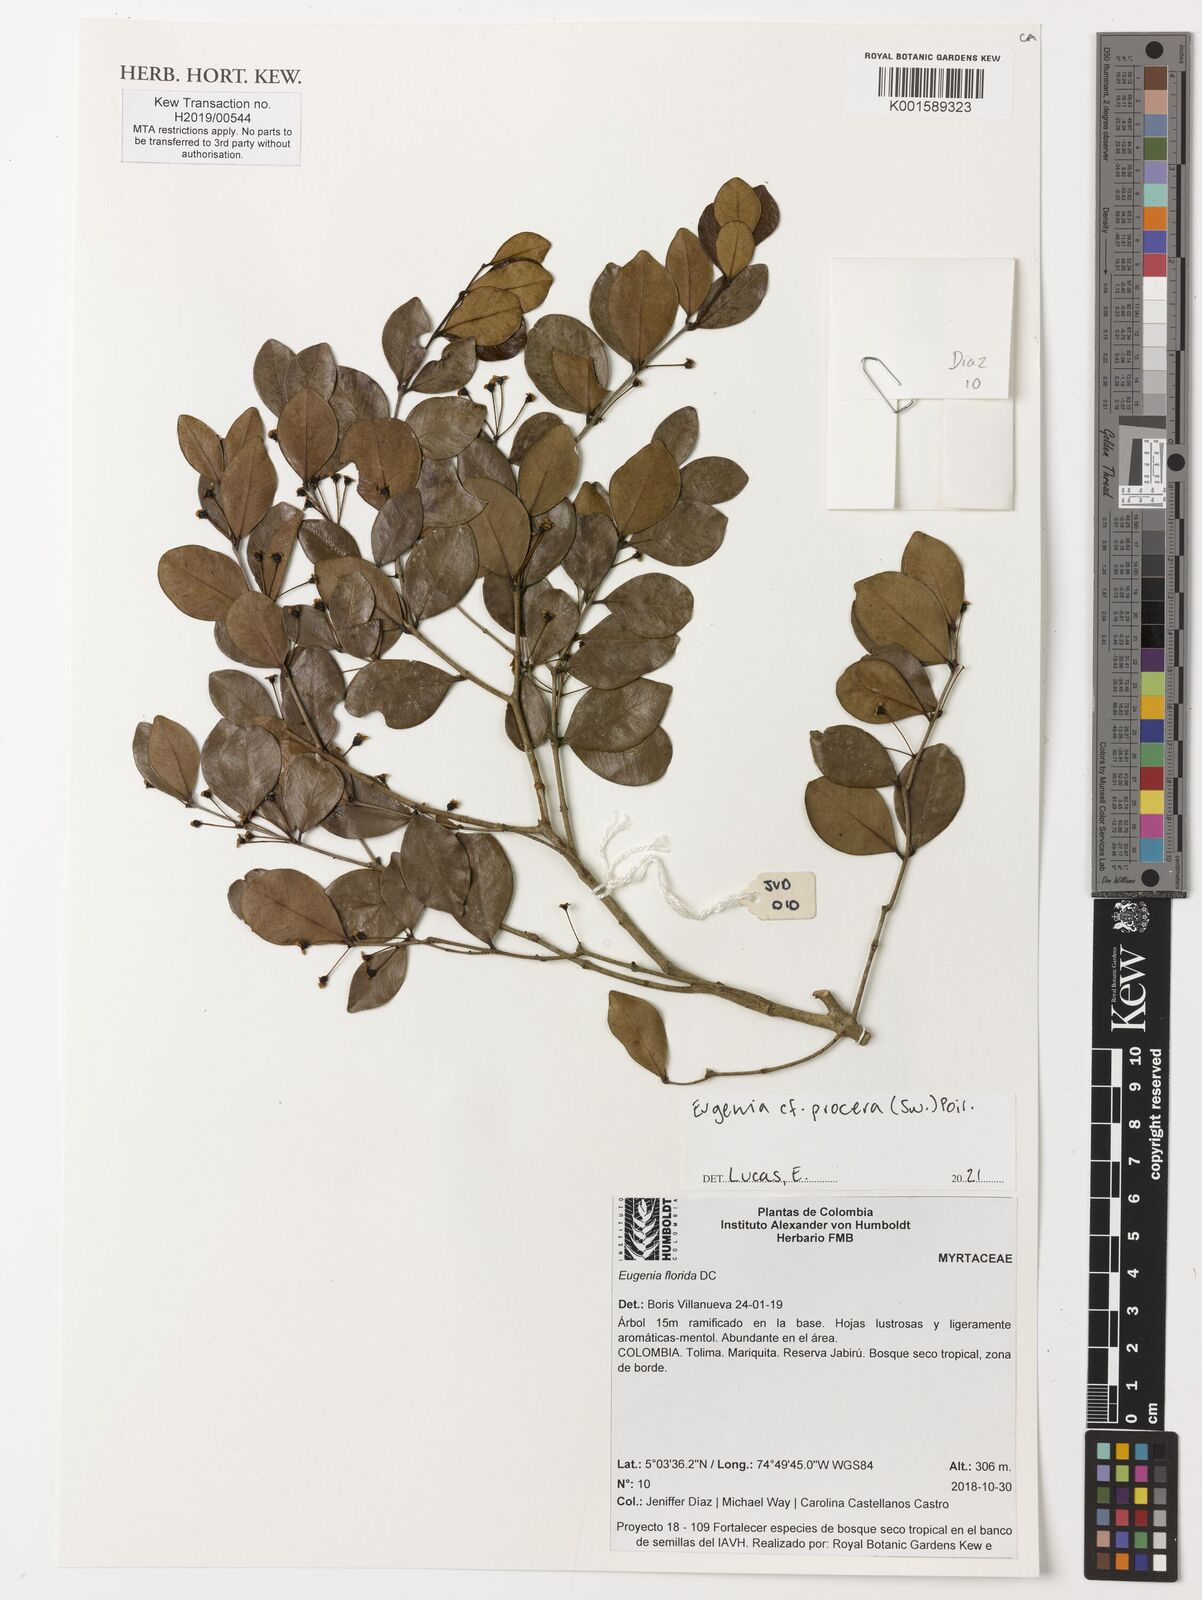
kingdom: Plantae
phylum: Tracheophyta
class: Magnoliopsida
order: Myrtales
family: Myrtaceae
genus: Eugenia
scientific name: Eugenia florida
